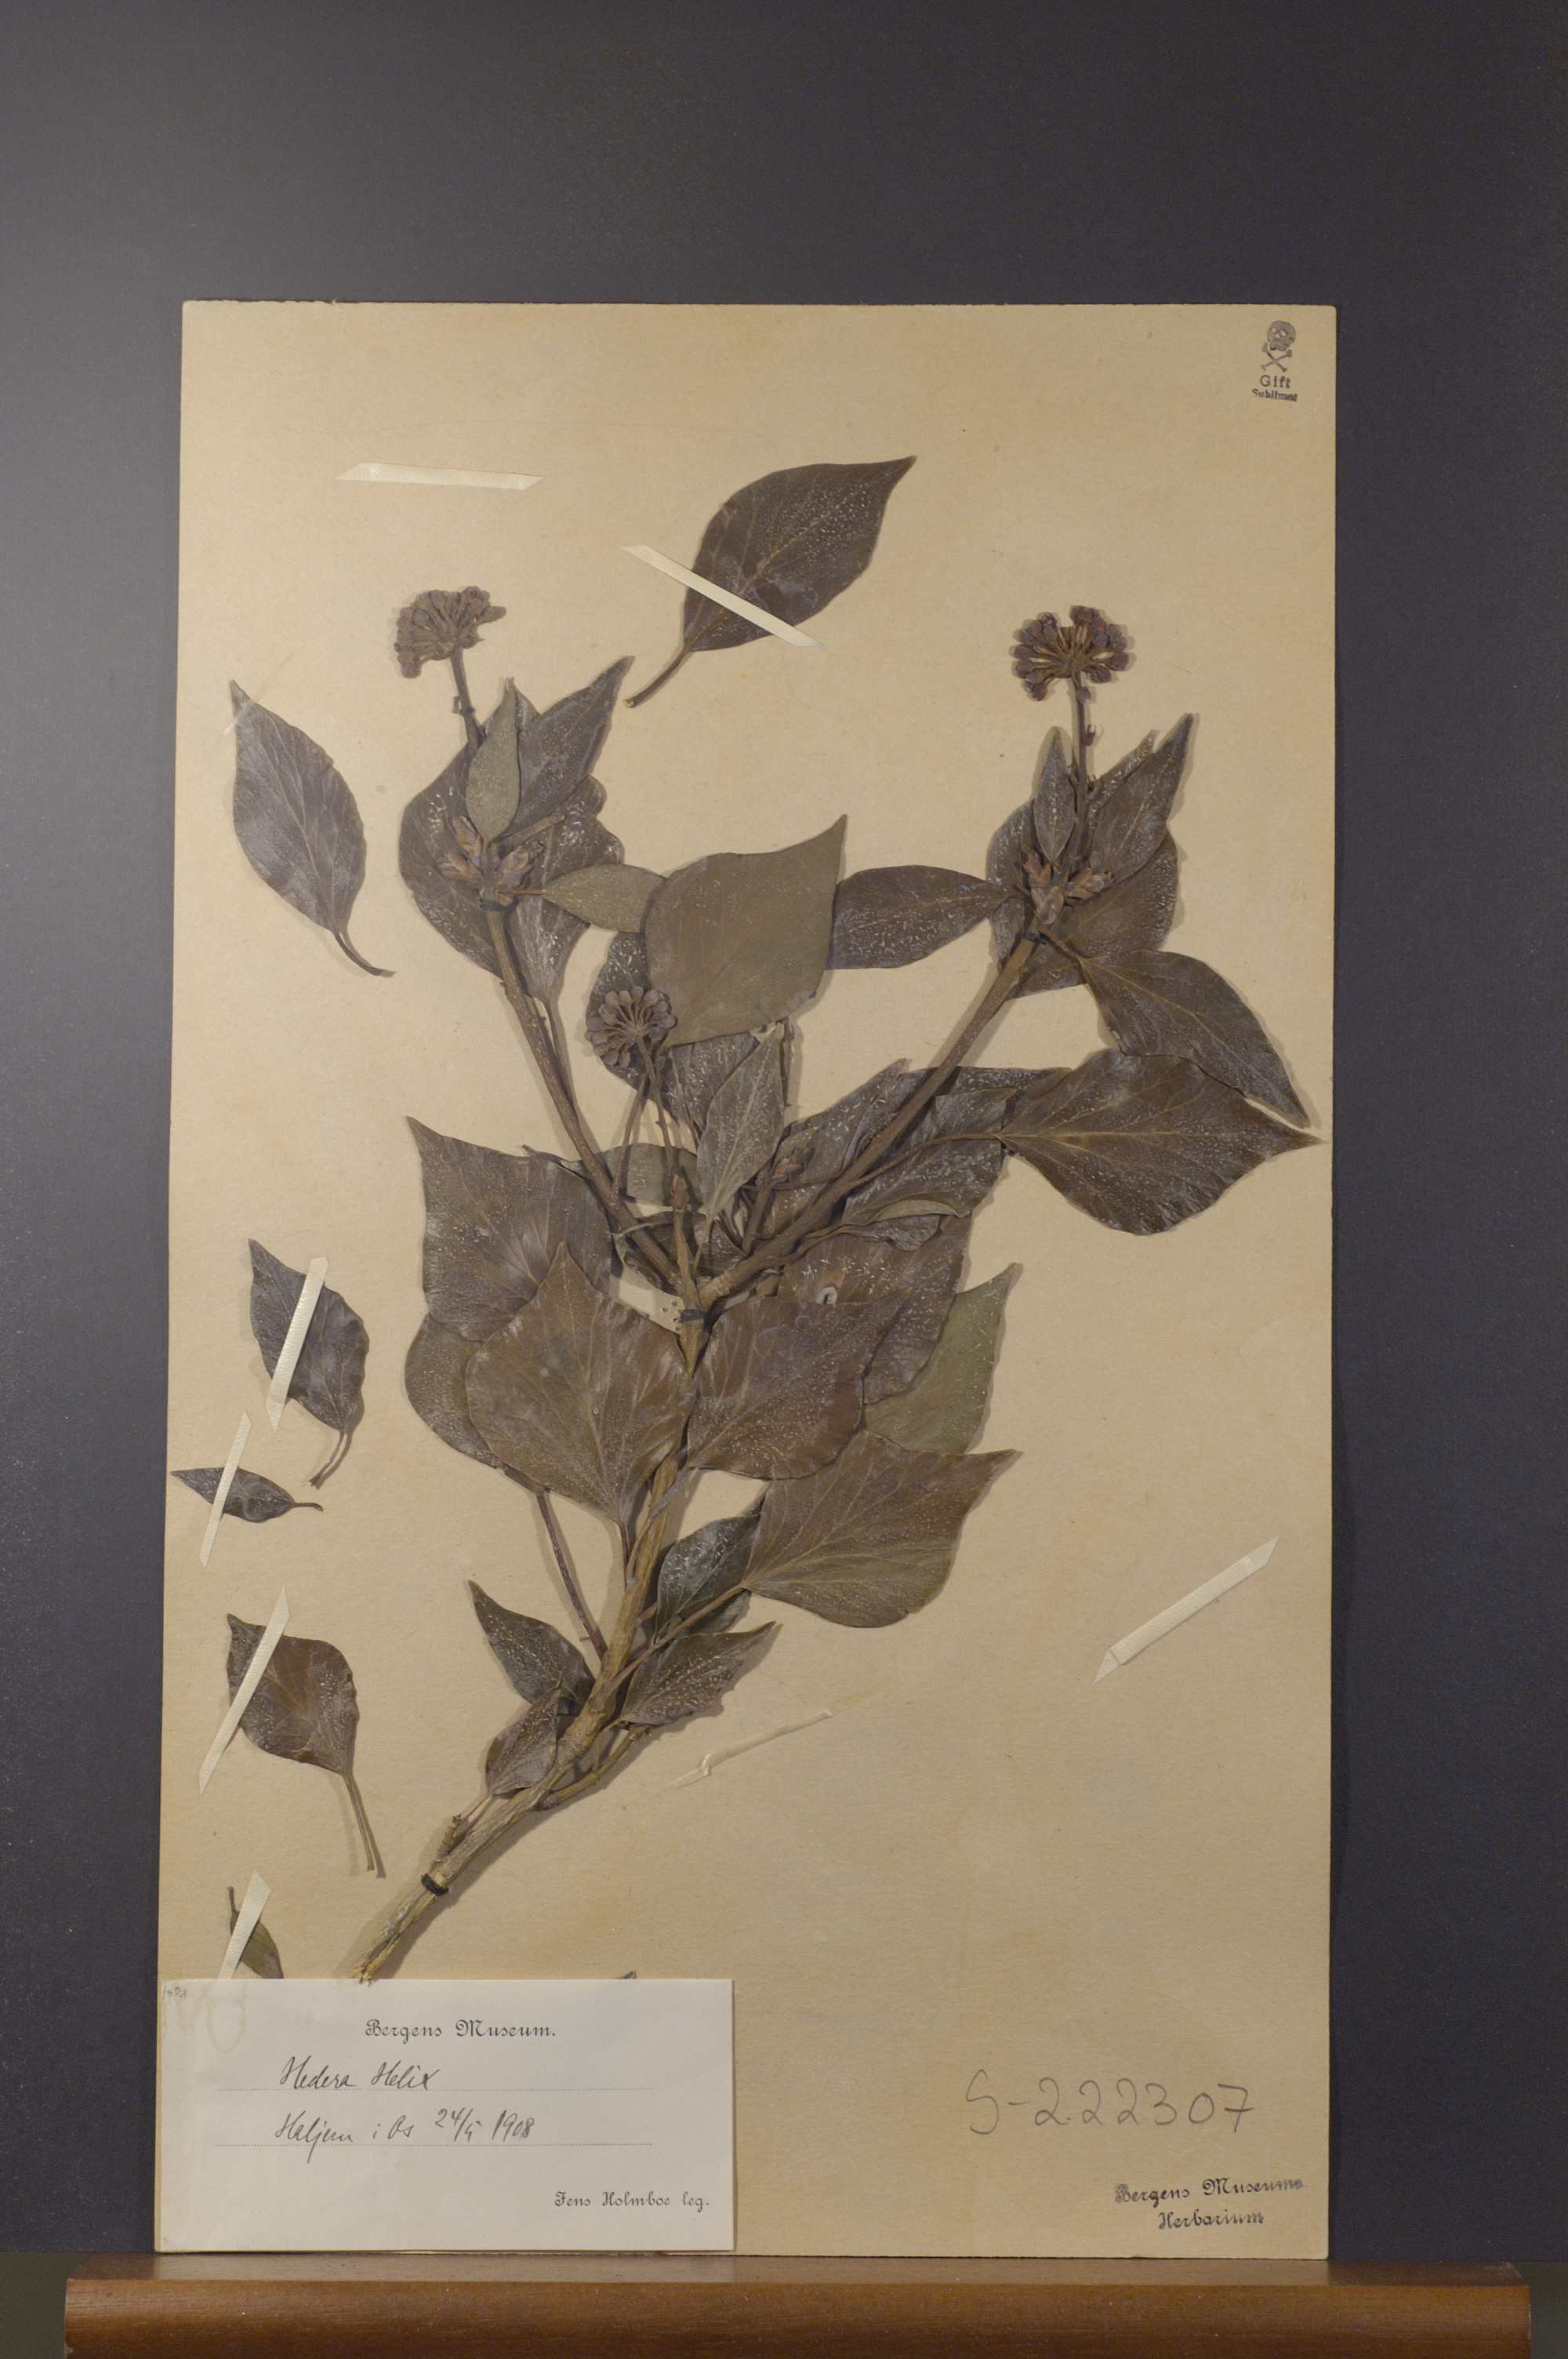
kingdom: Plantae
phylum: Tracheophyta
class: Magnoliopsida
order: Apiales
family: Araliaceae
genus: Hedera
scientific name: Hedera helix
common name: Ivy
